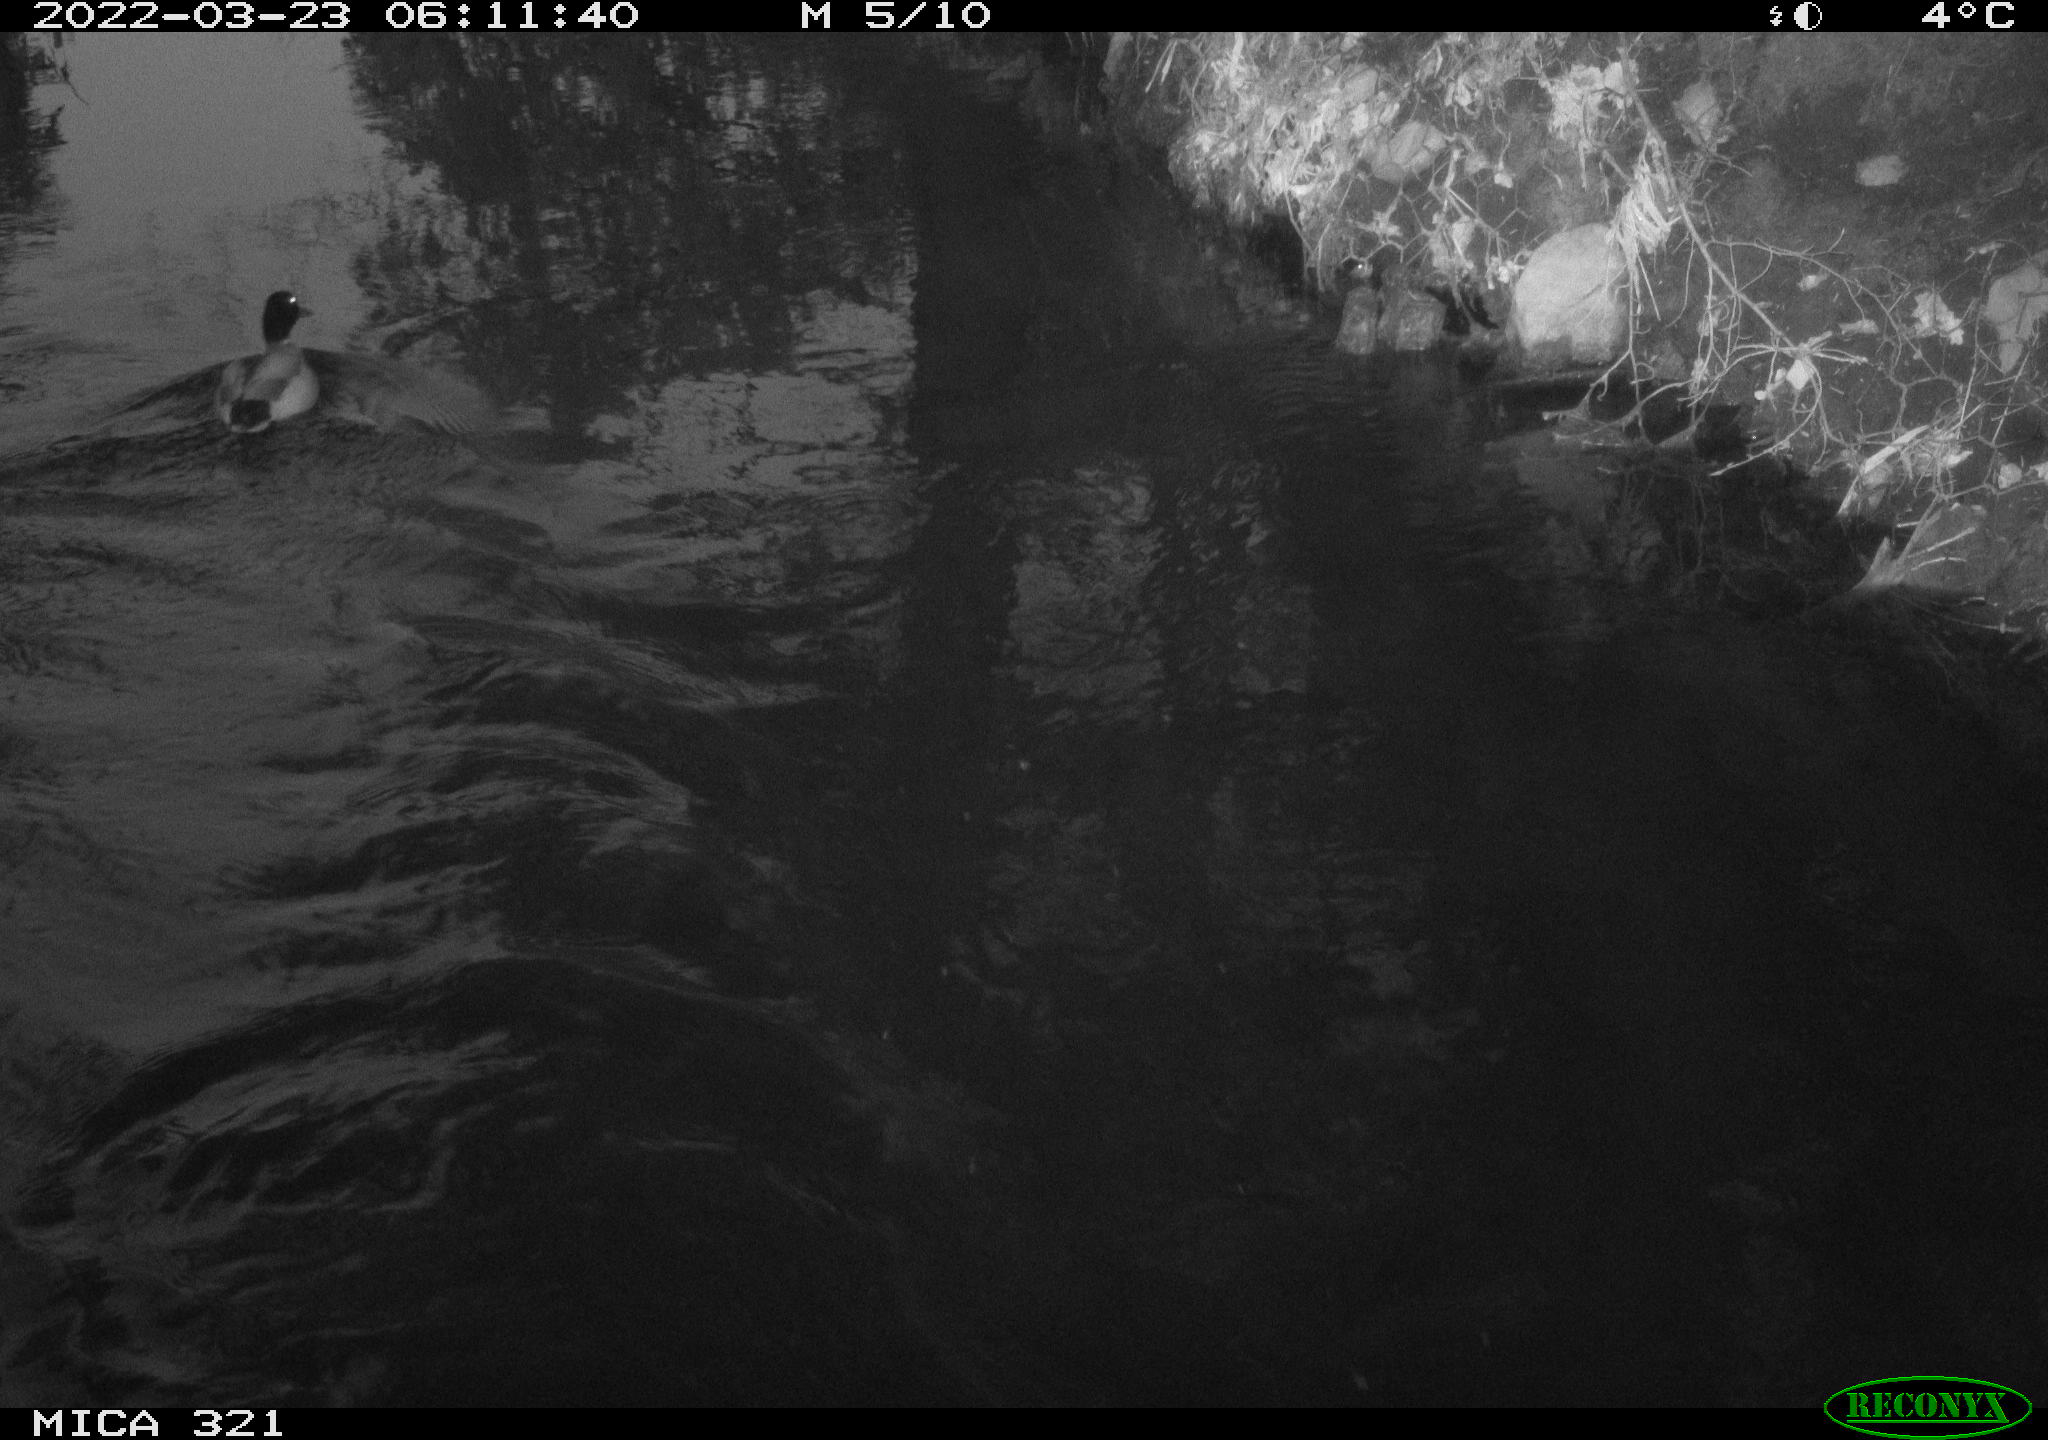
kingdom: Animalia
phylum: Chordata
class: Aves
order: Anseriformes
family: Anatidae
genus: Anas
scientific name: Anas platyrhynchos
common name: Mallard
